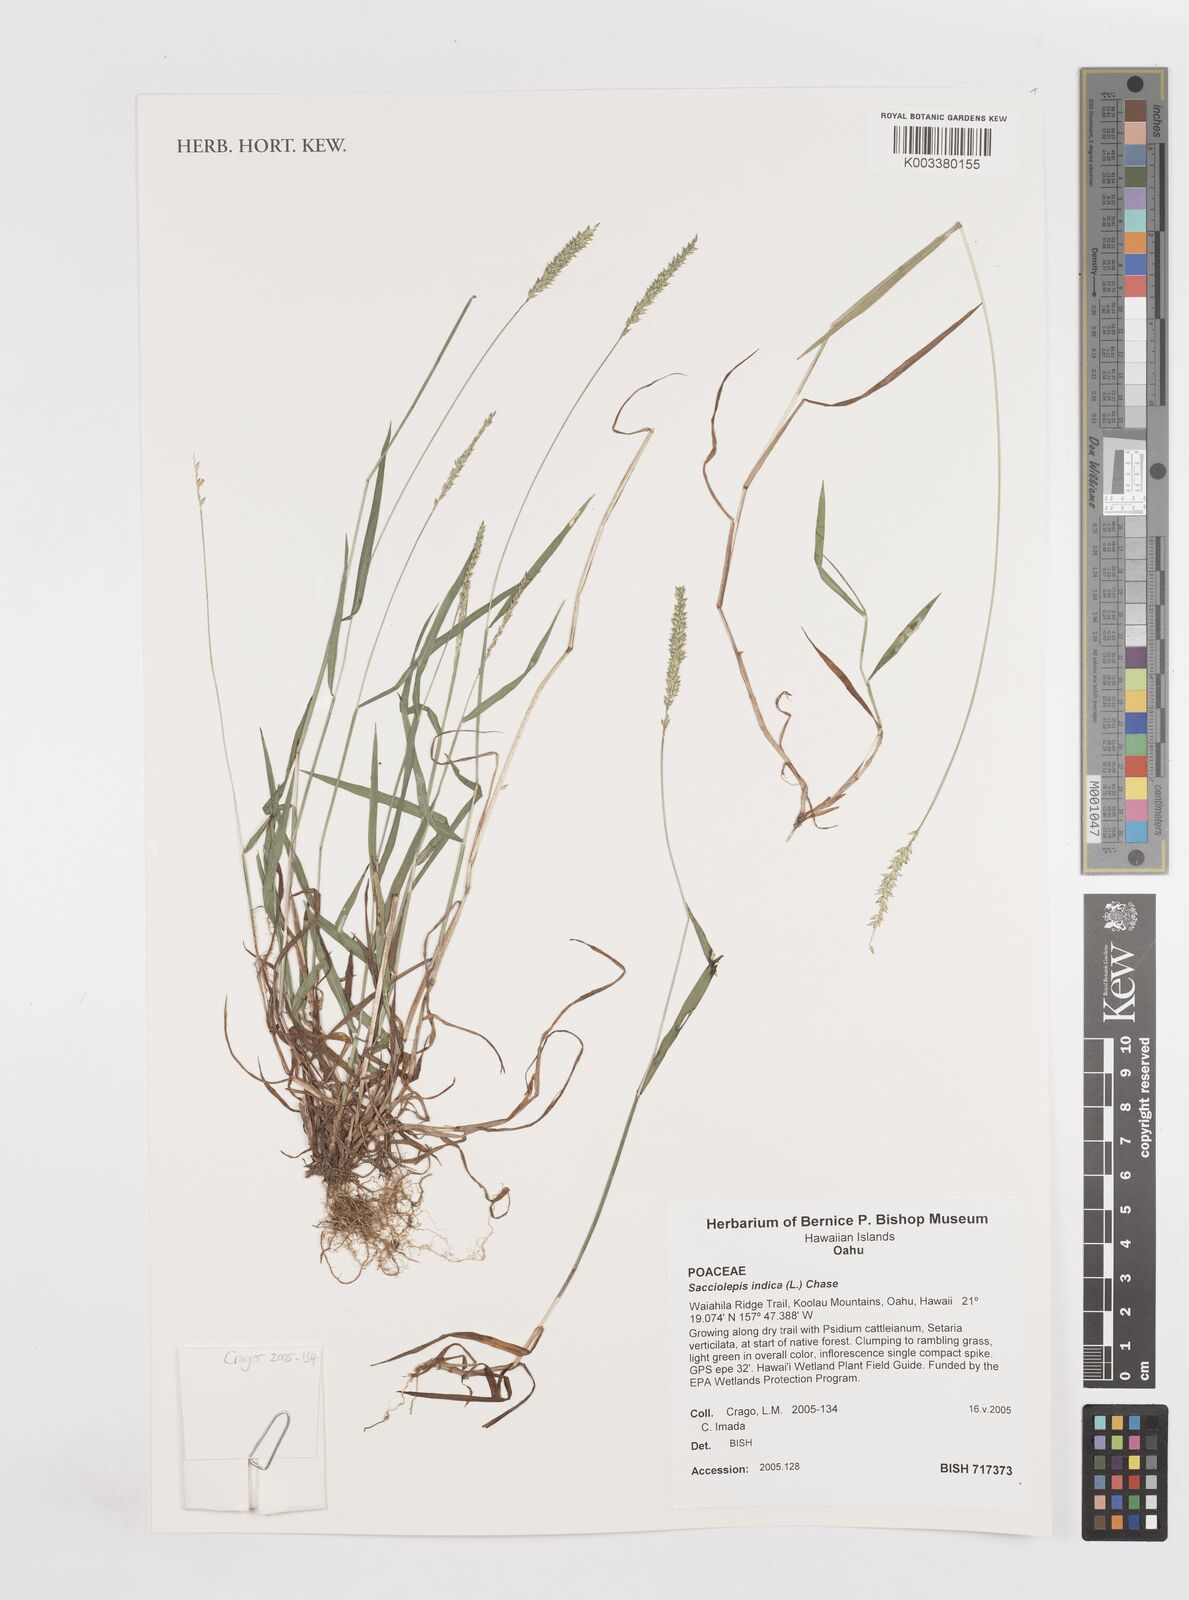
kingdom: Plantae
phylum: Tracheophyta
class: Liliopsida
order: Poales
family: Poaceae
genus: Sacciolepis
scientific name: Sacciolepis indica
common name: Glenwoodgrass
